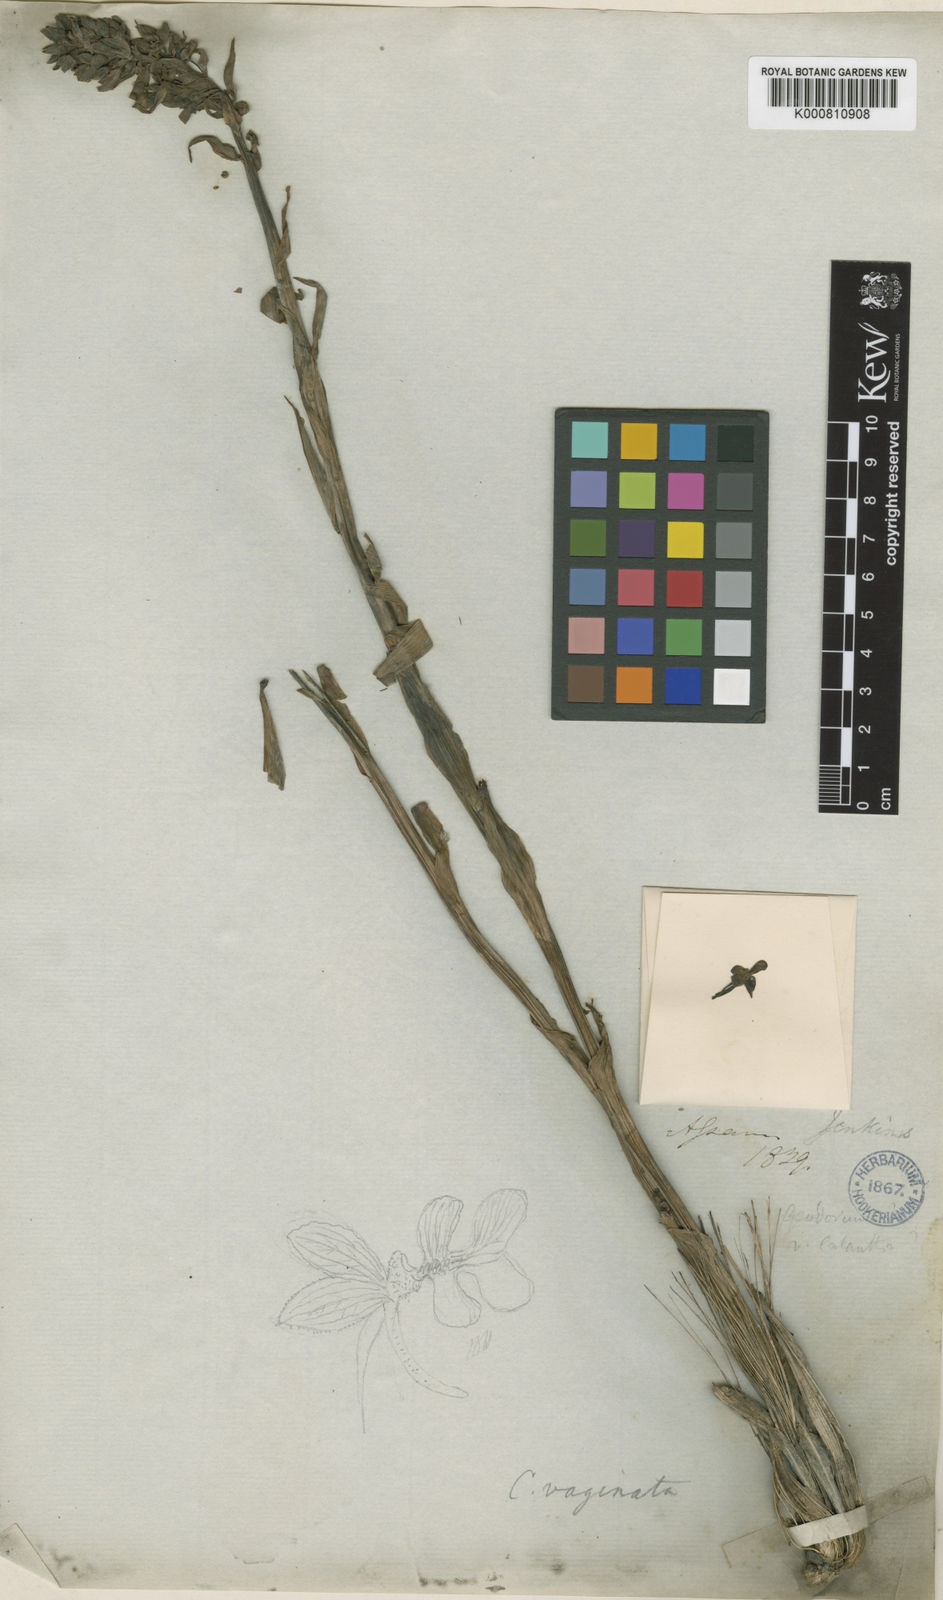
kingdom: Plantae
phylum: Tracheophyta
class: Liliopsida
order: Asparagales
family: Orchidaceae
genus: Calanthe
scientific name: Calanthe odora
